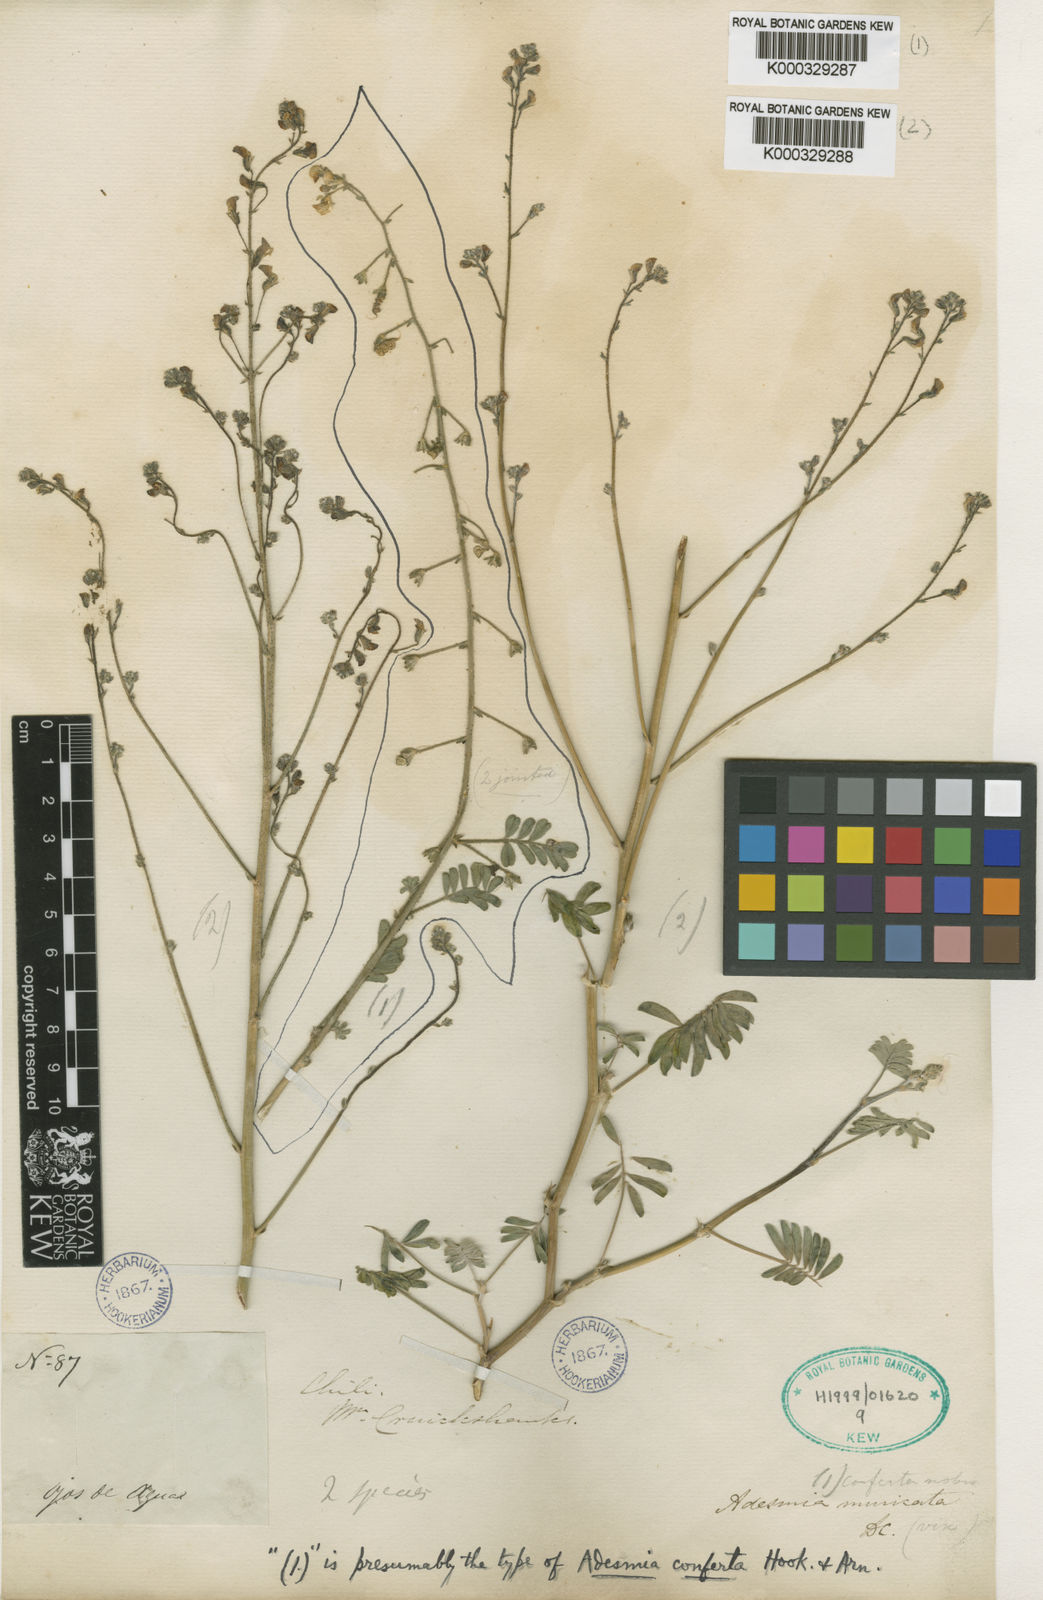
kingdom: Plantae
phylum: Tracheophyta
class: Magnoliopsida
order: Fabales
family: Fabaceae
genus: Adesmia
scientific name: Adesmia conferta
